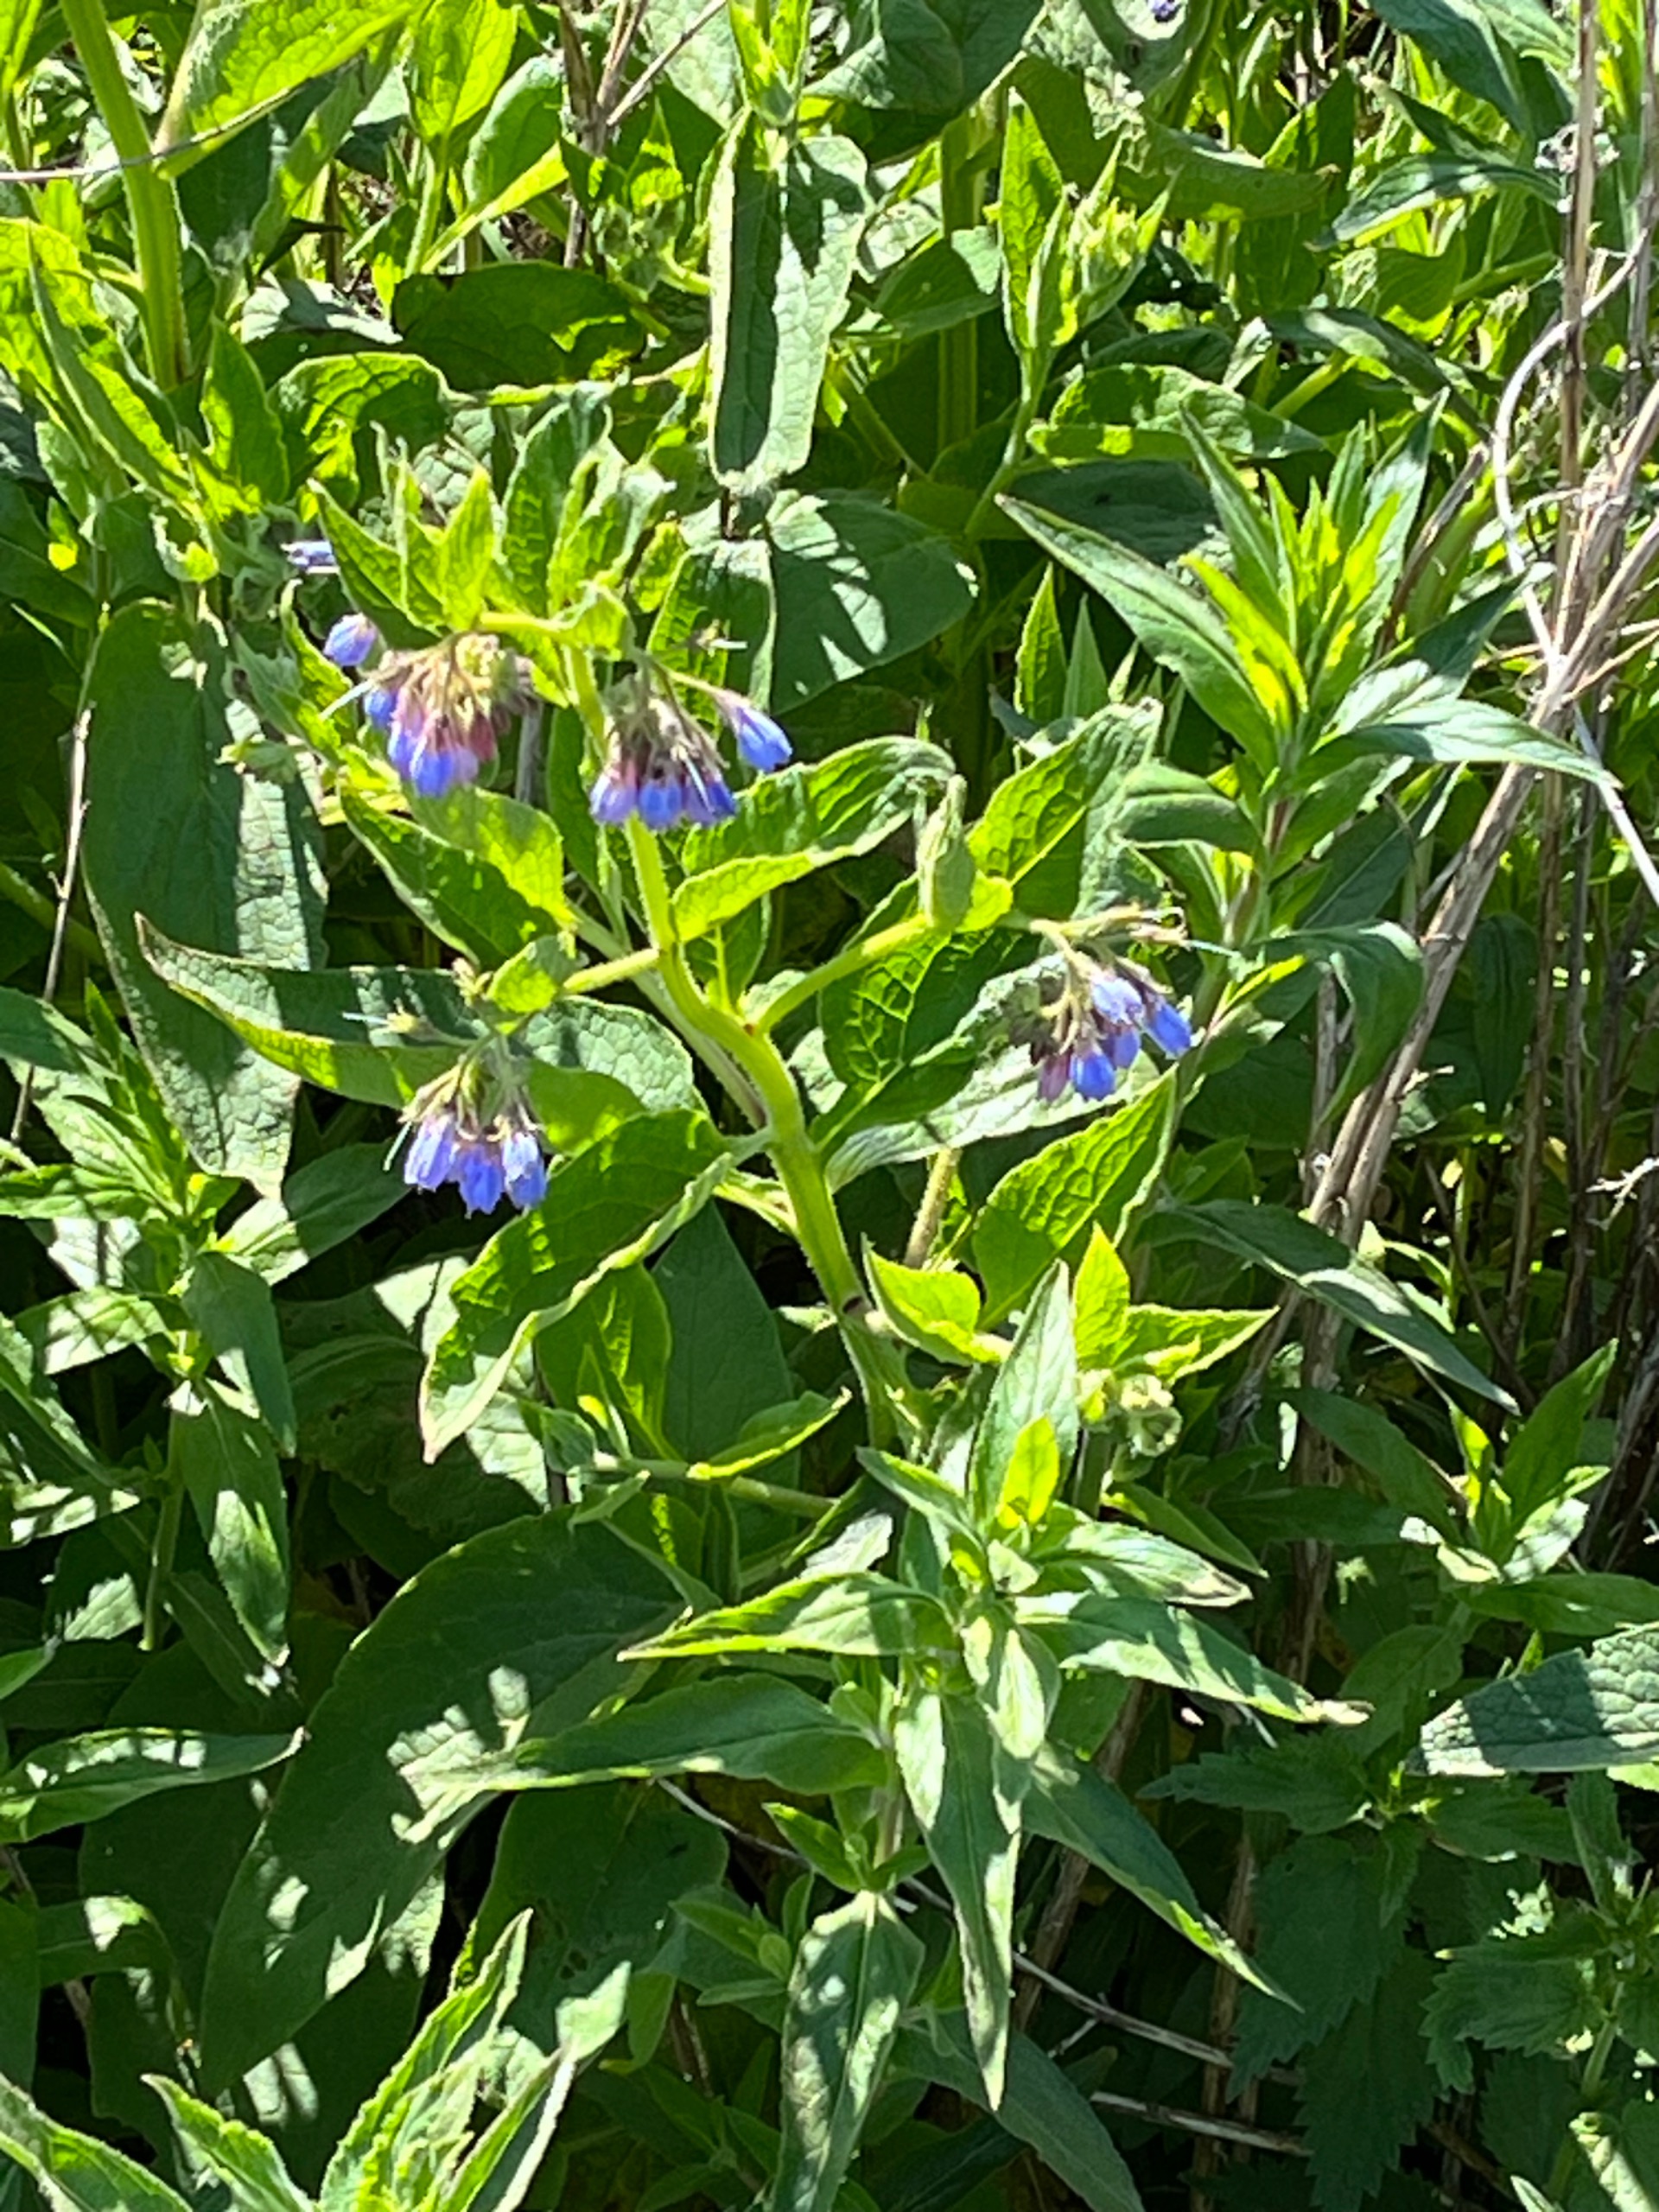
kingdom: Plantae
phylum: Tracheophyta
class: Magnoliopsida
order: Boraginales
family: Boraginaceae
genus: Symphytum
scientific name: Symphytum uplandicum
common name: Foder-kulsukker
